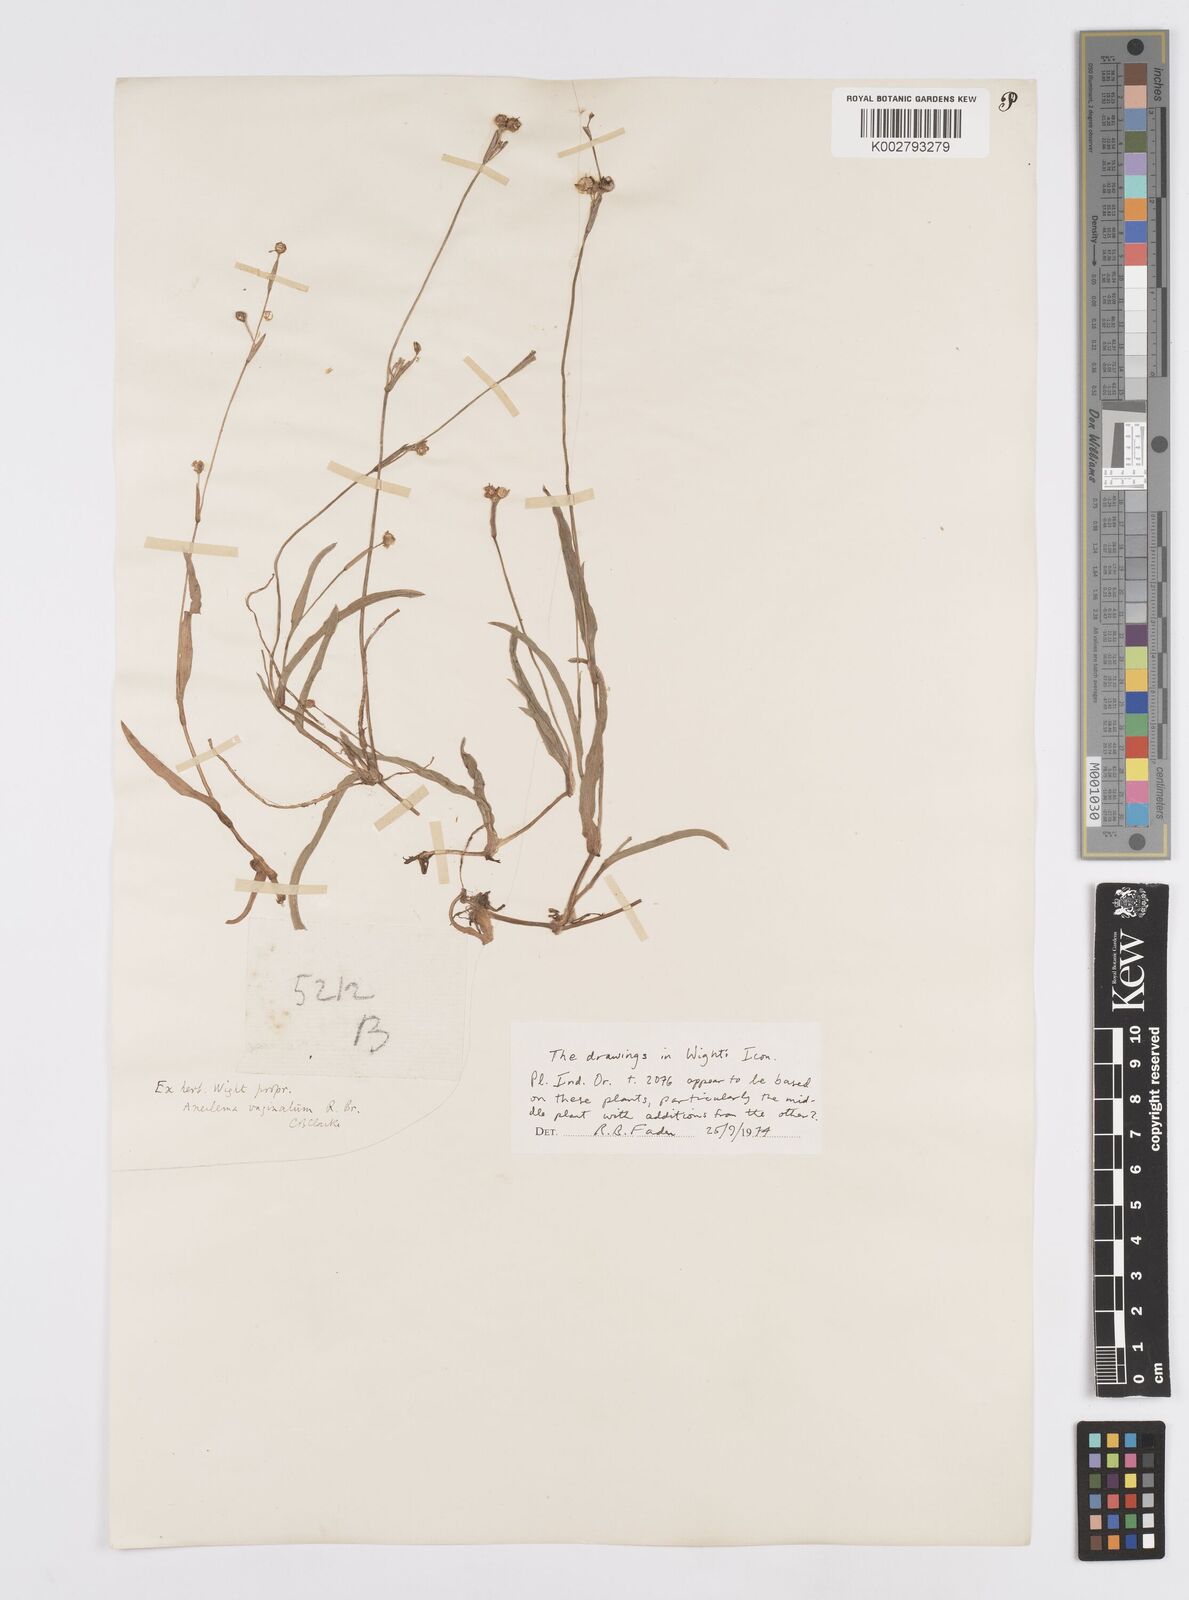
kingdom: Plantae
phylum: Tracheophyta
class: Liliopsida
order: Commelinales
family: Commelinaceae
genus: Murdannia
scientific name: Murdannia
